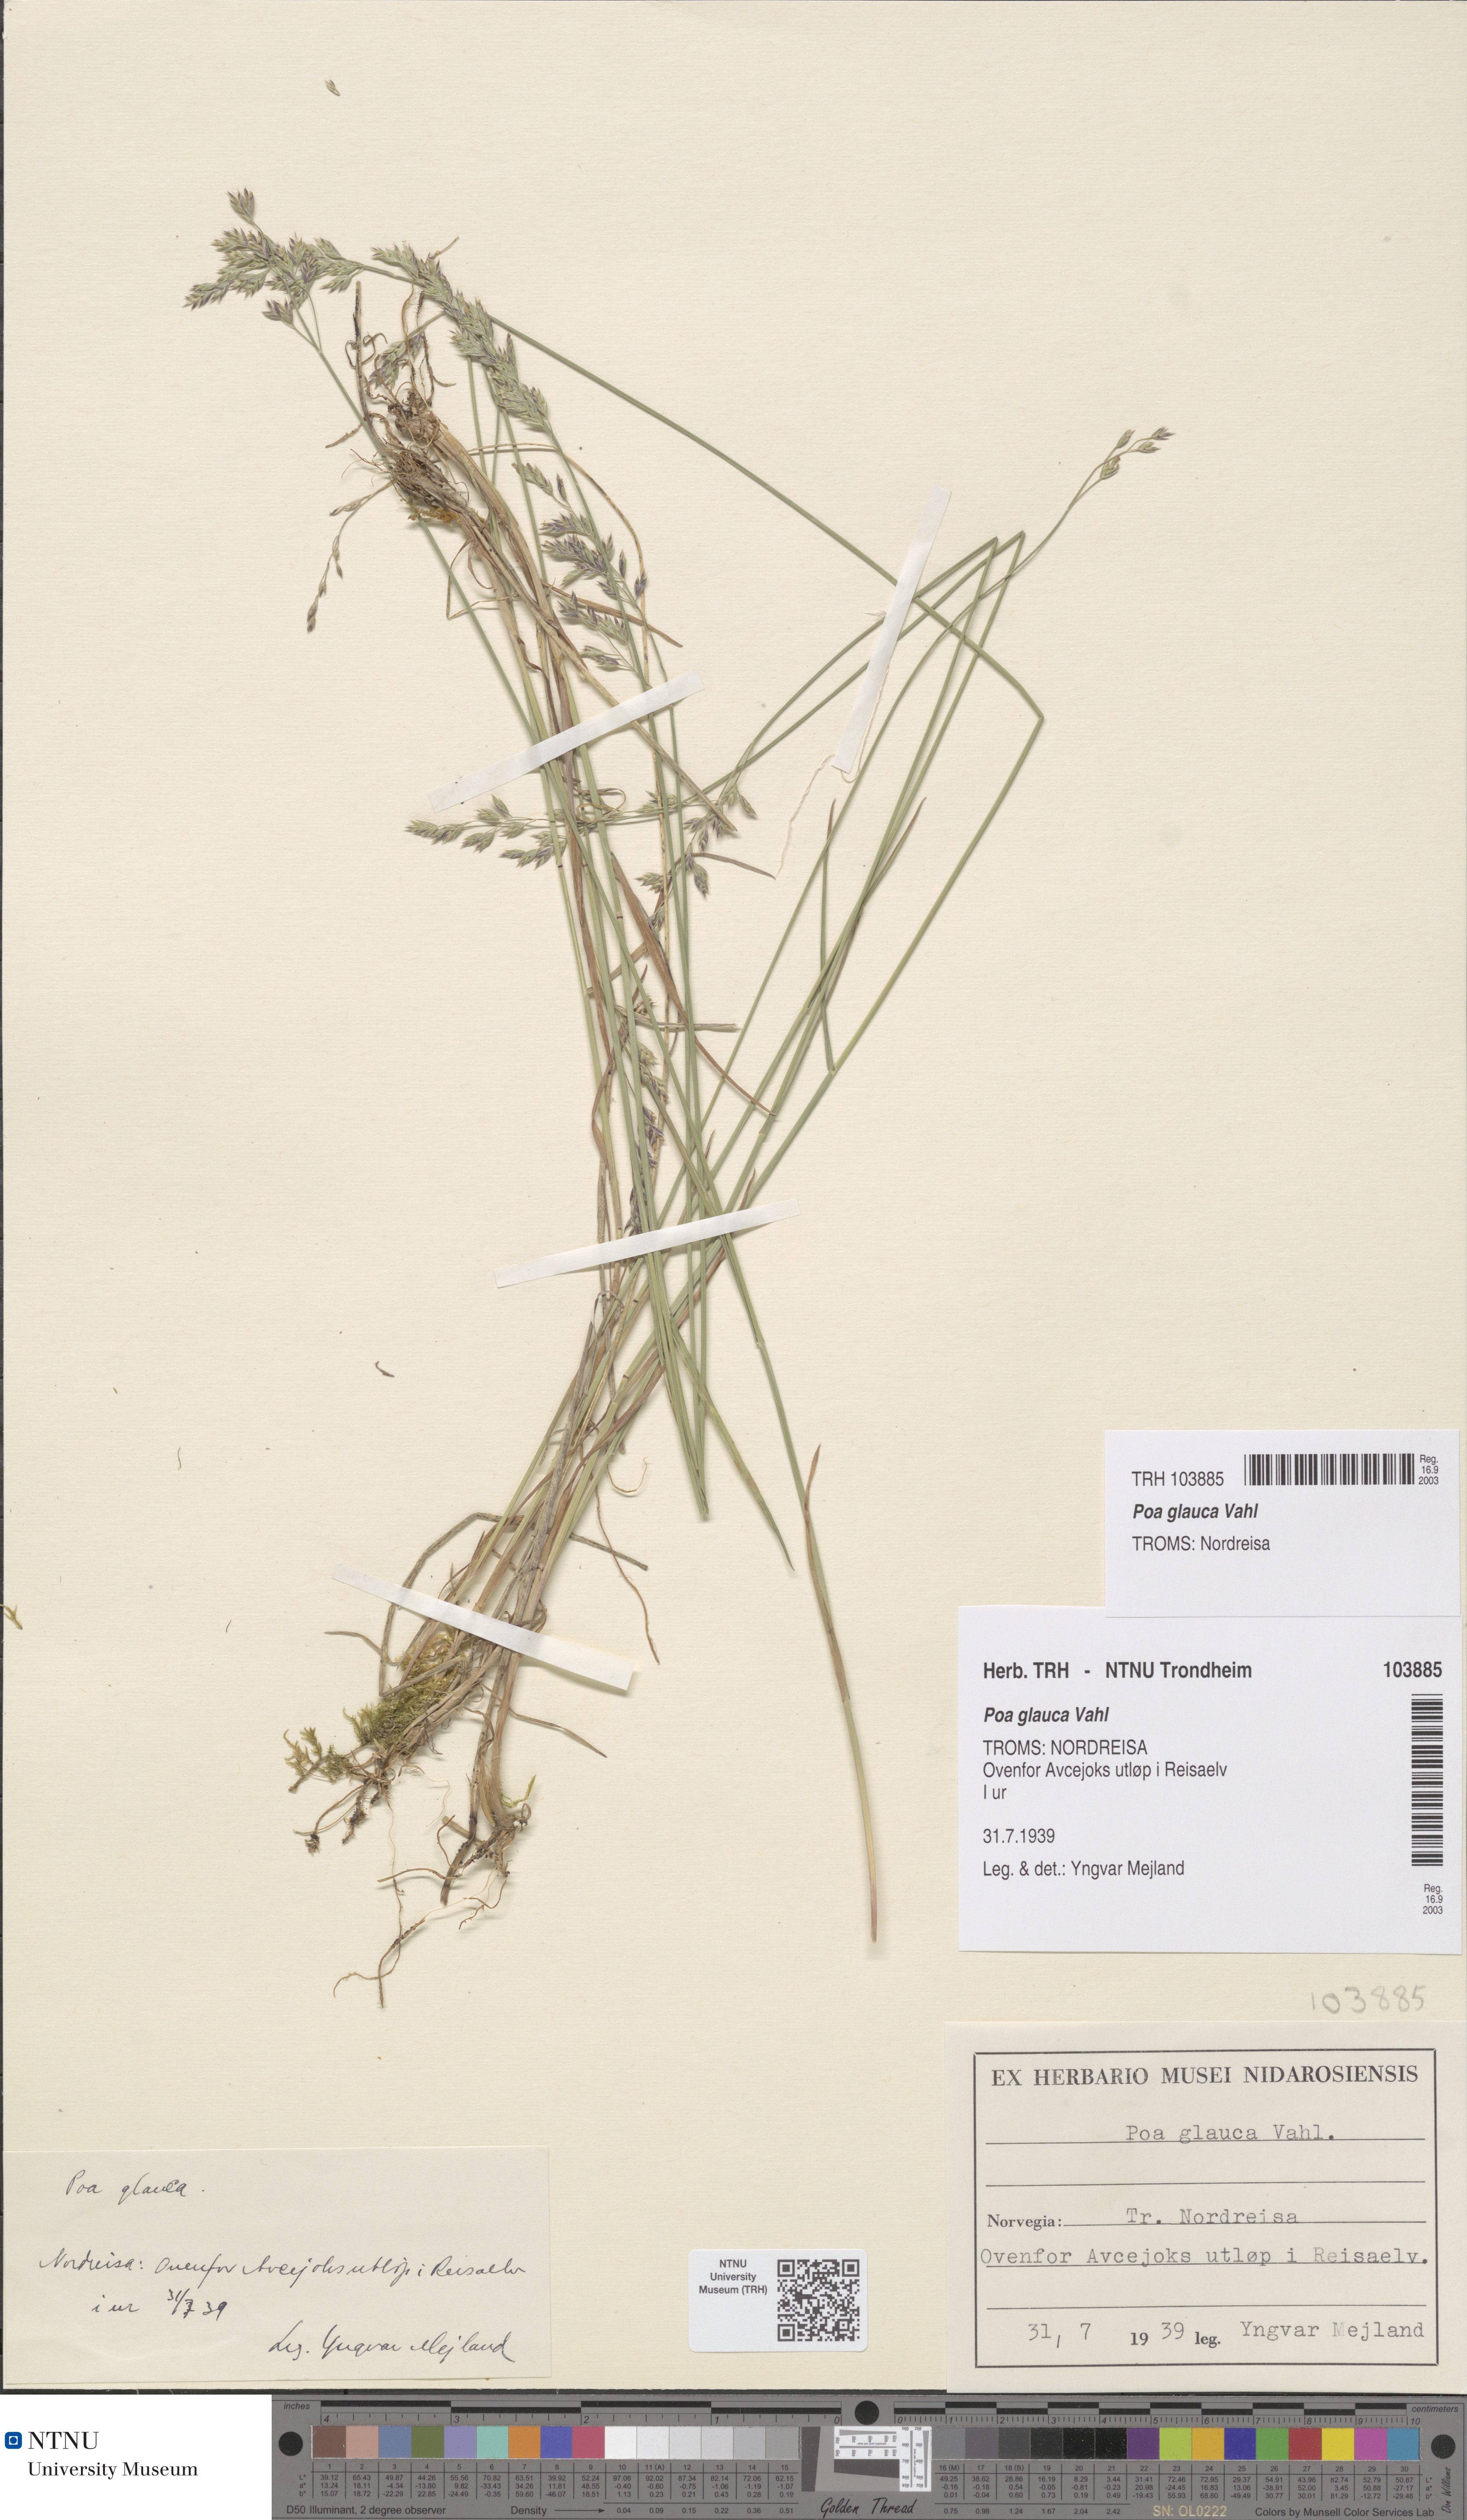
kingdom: Plantae
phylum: Tracheophyta
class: Liliopsida
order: Poales
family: Poaceae
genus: Poa
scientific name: Poa glauca
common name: Glaucous bluegrass
